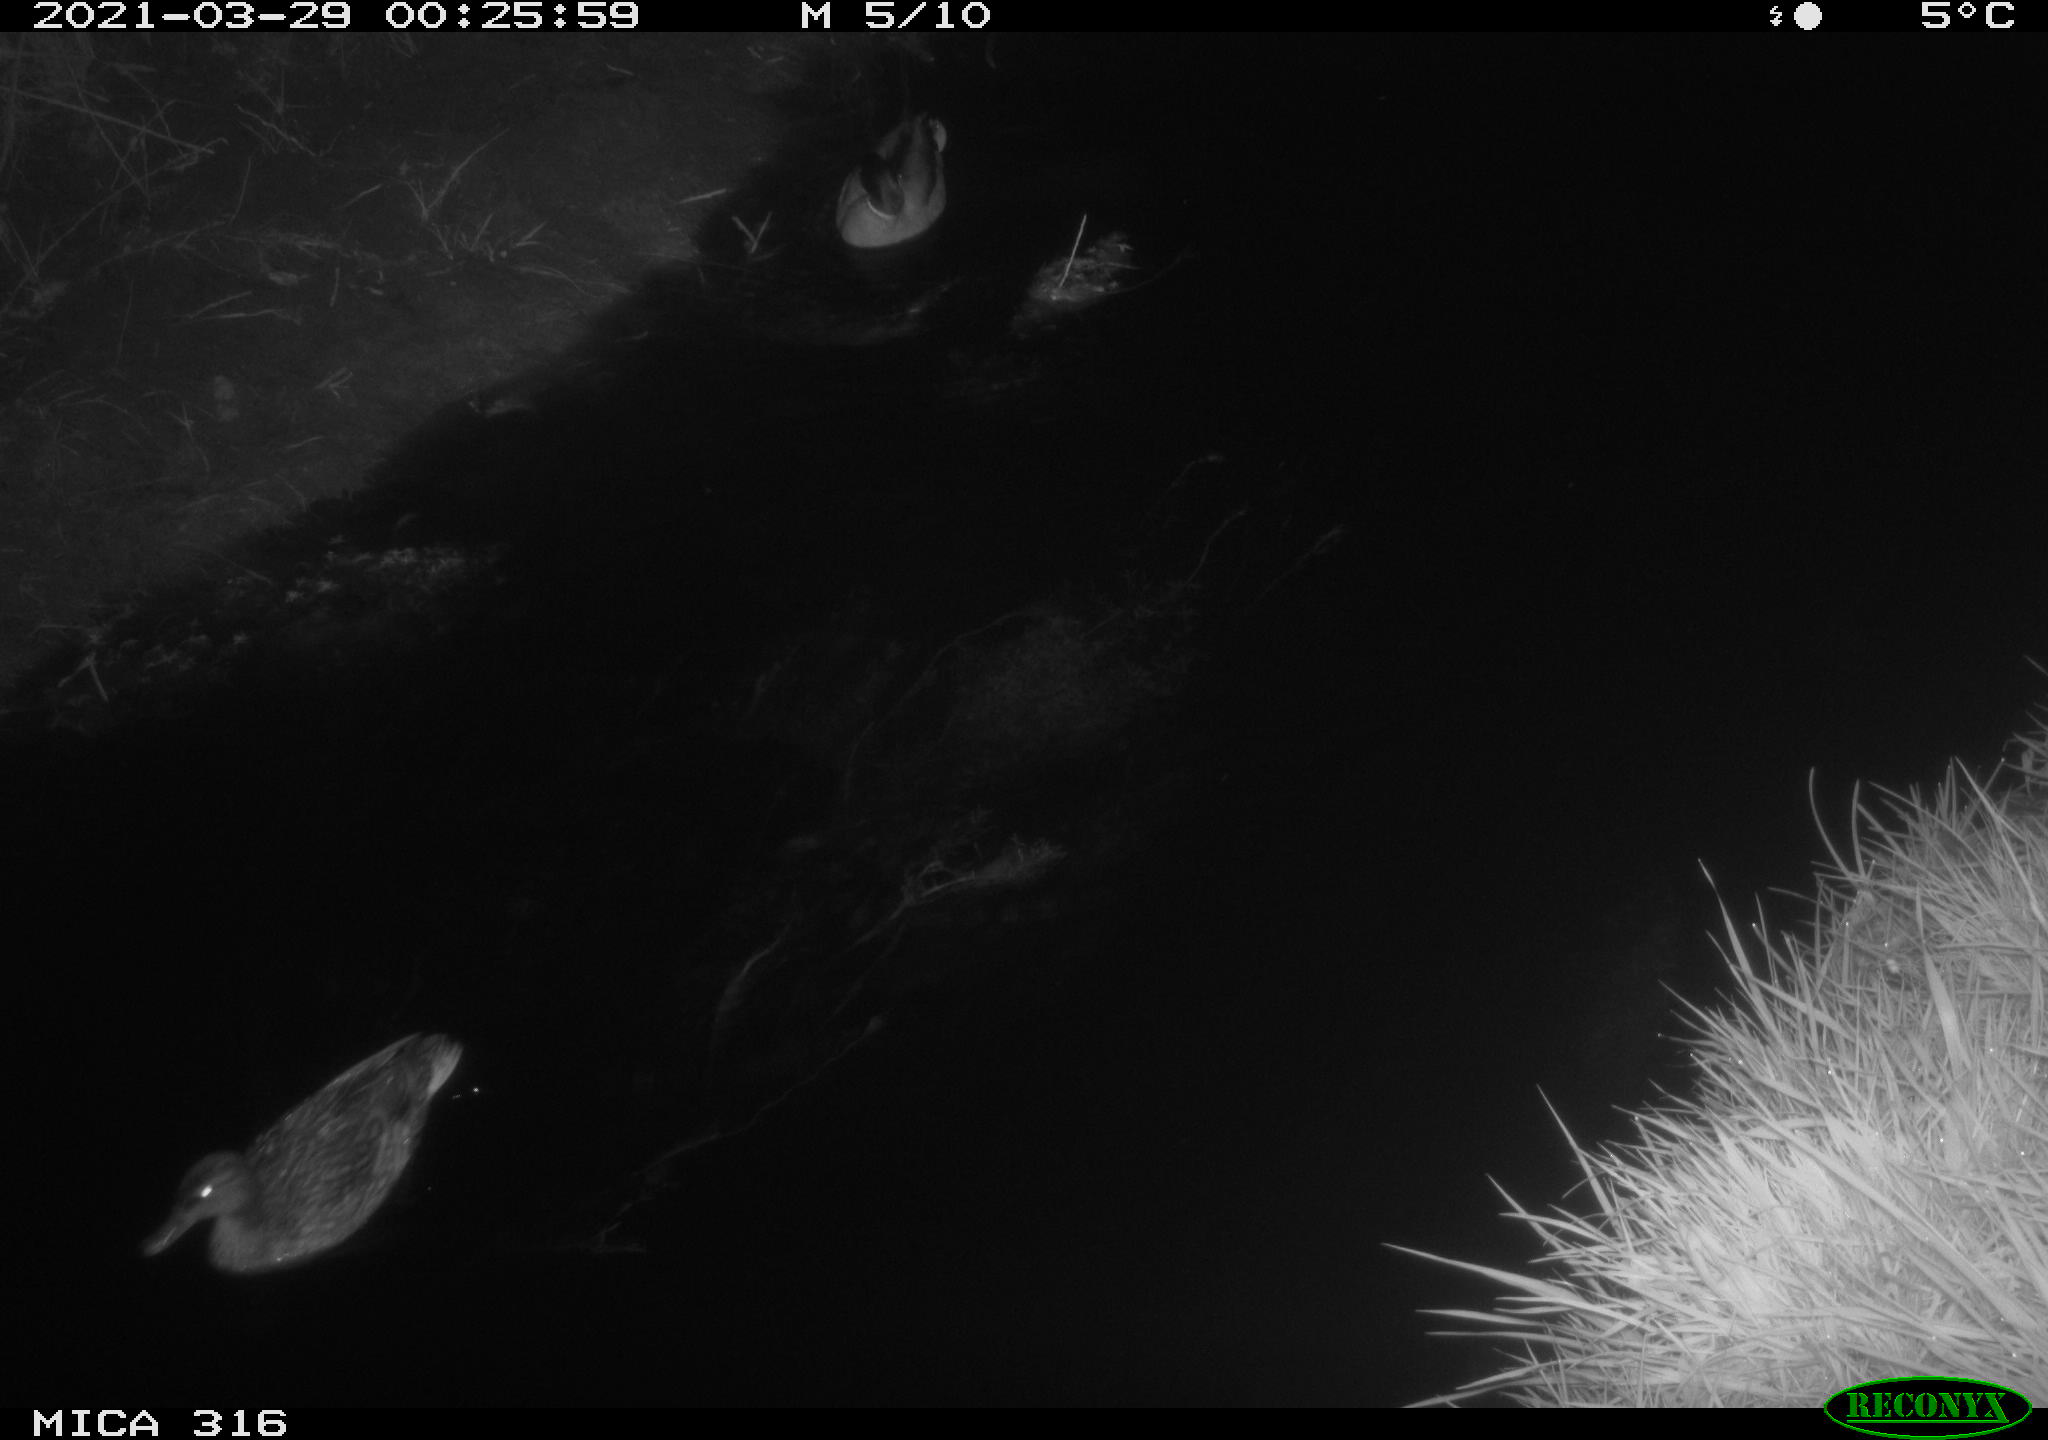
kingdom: Animalia
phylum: Chordata
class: Aves
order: Anseriformes
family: Anatidae
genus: Anas
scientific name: Anas platyrhynchos
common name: Mallard
